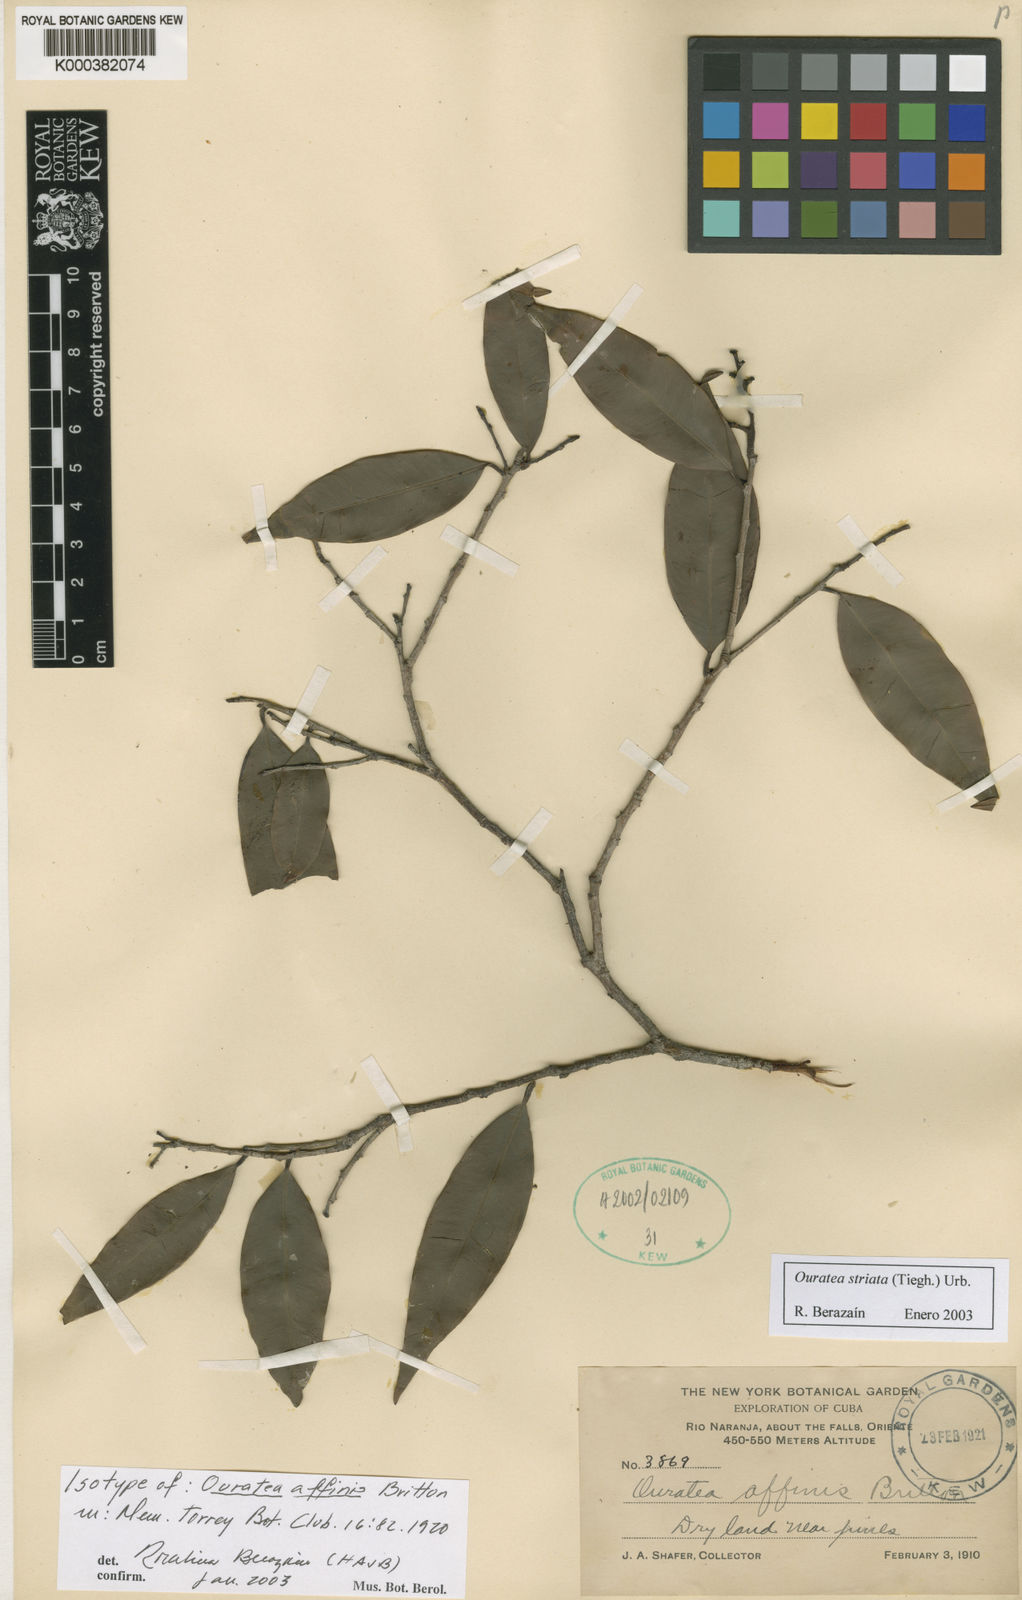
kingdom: Plantae
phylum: Tracheophyta
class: Magnoliopsida
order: Malpighiales
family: Ochnaceae
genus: Ouratea
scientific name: Ouratea striata
